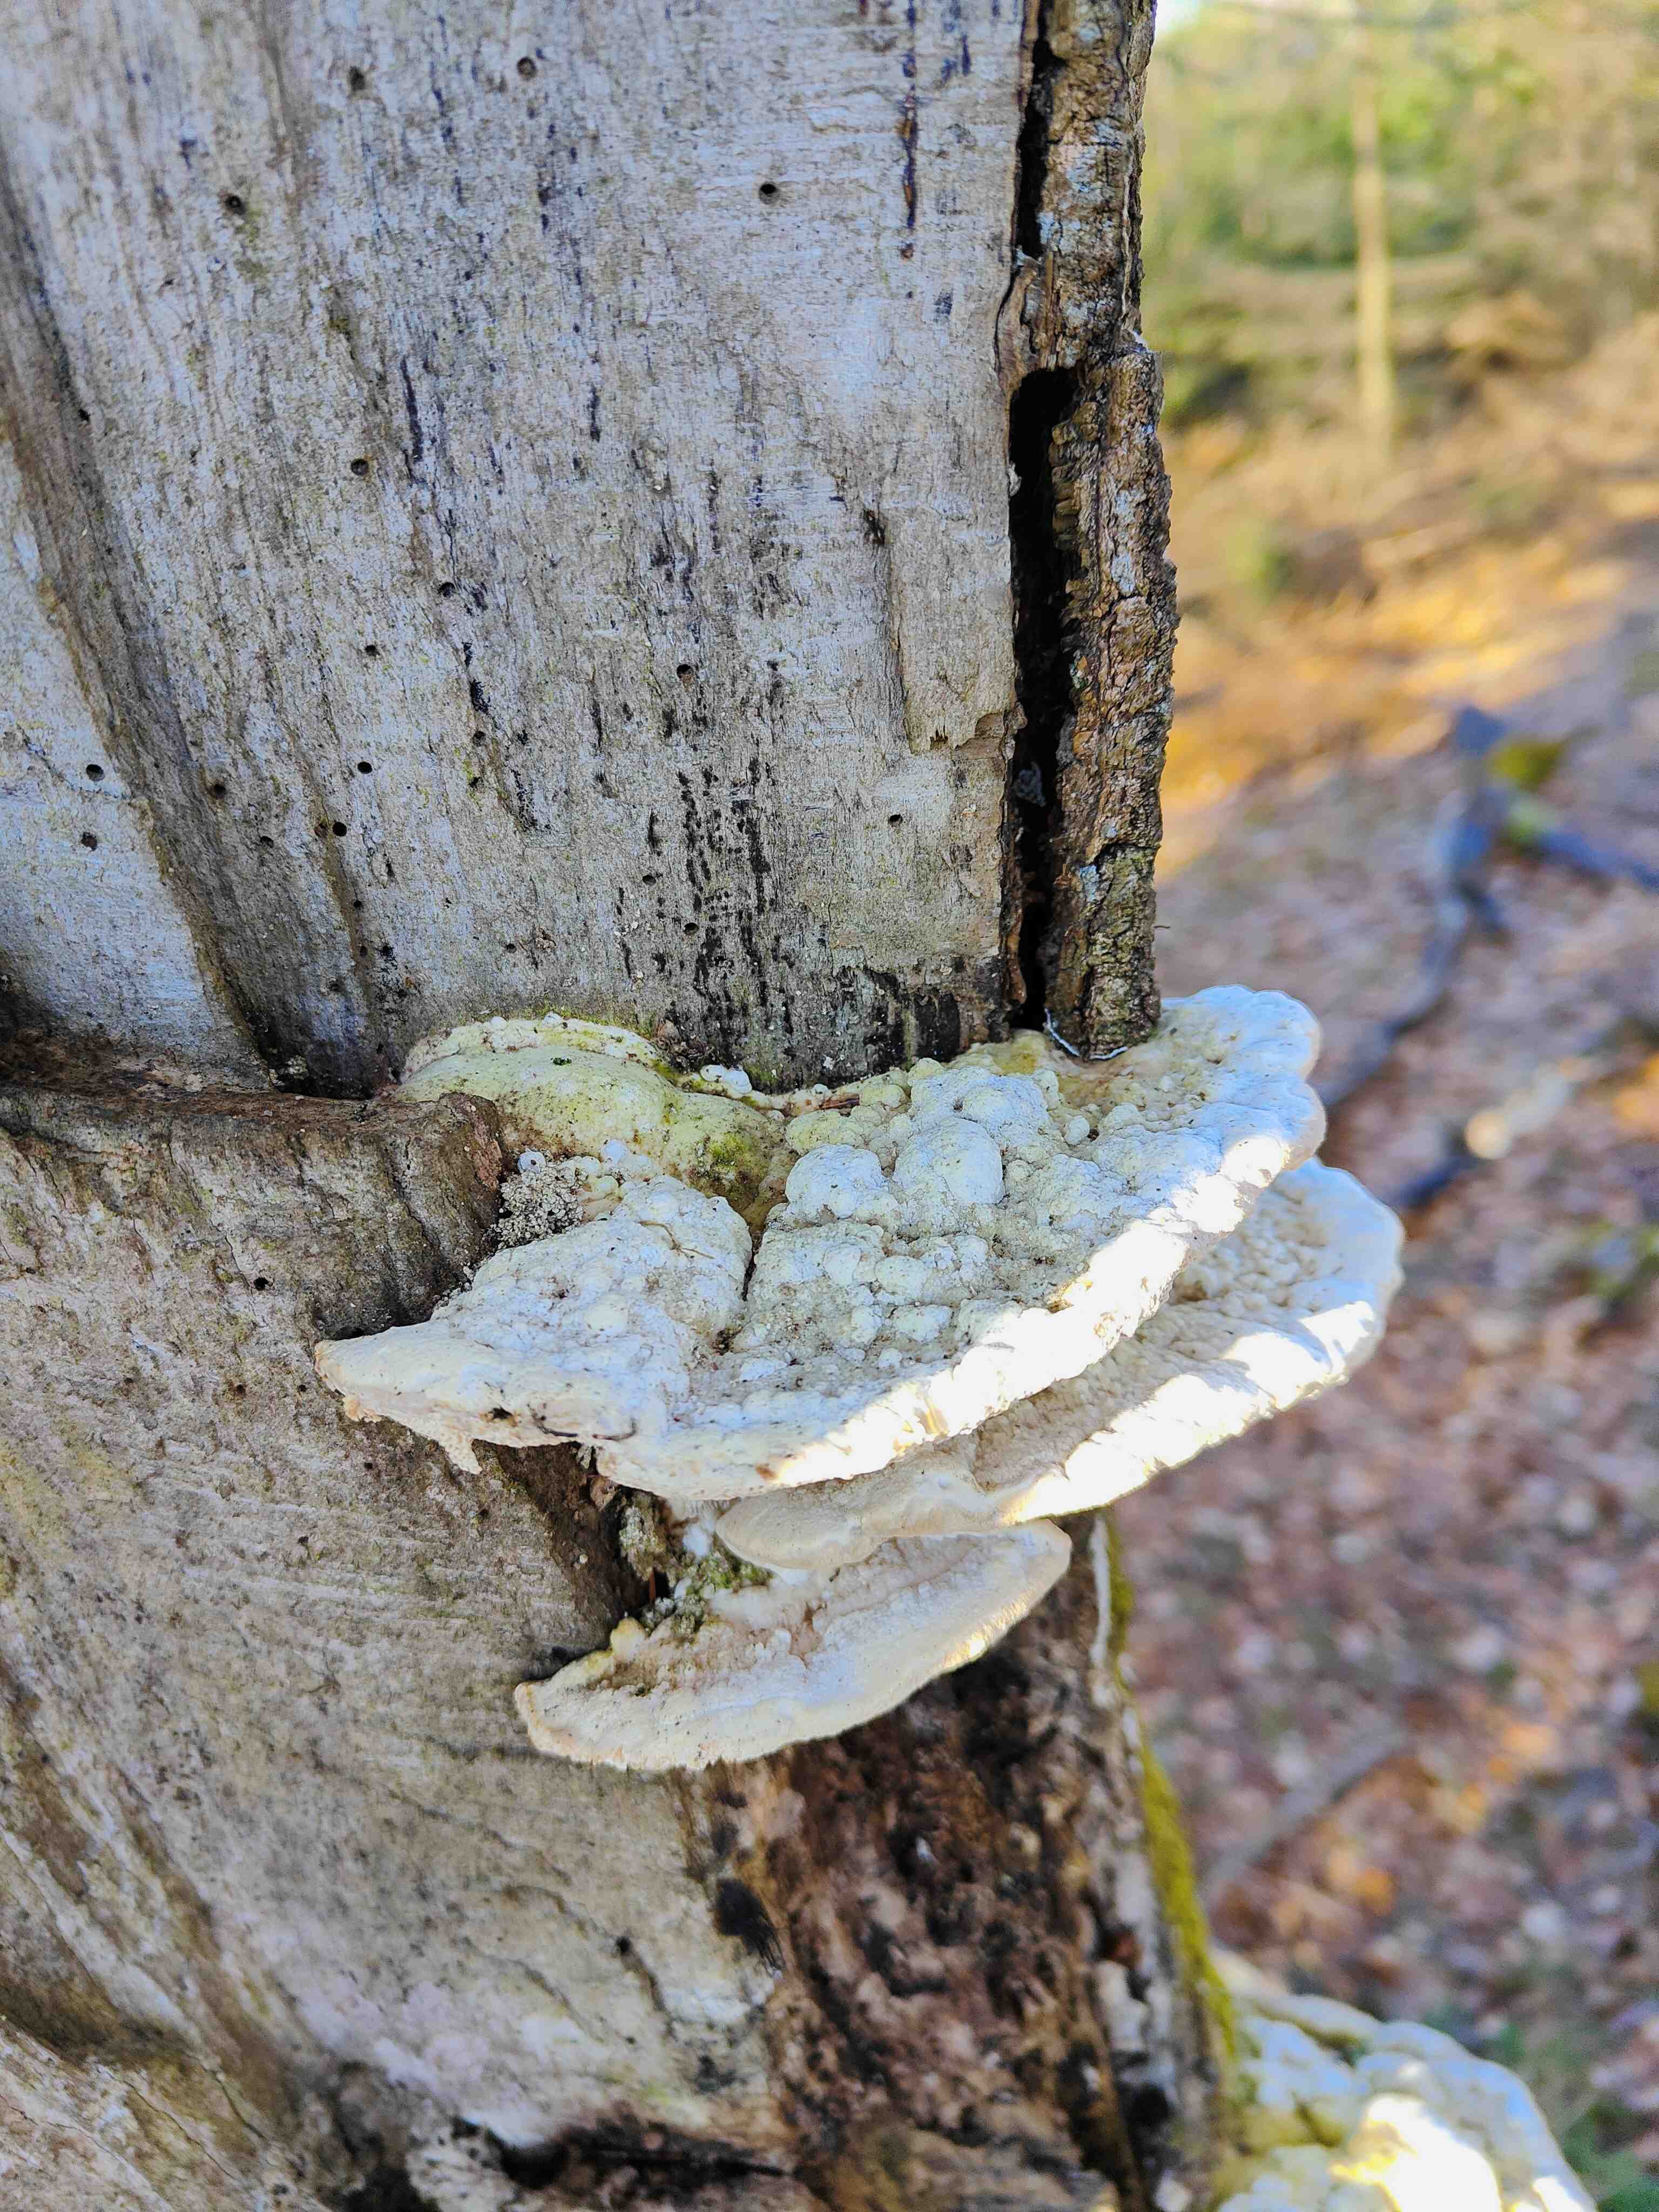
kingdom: Fungi
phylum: Basidiomycota
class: Agaricomycetes
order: Polyporales
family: Polyporaceae
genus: Trametes
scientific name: Trametes gibbosa
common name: puklet læderporesvamp
